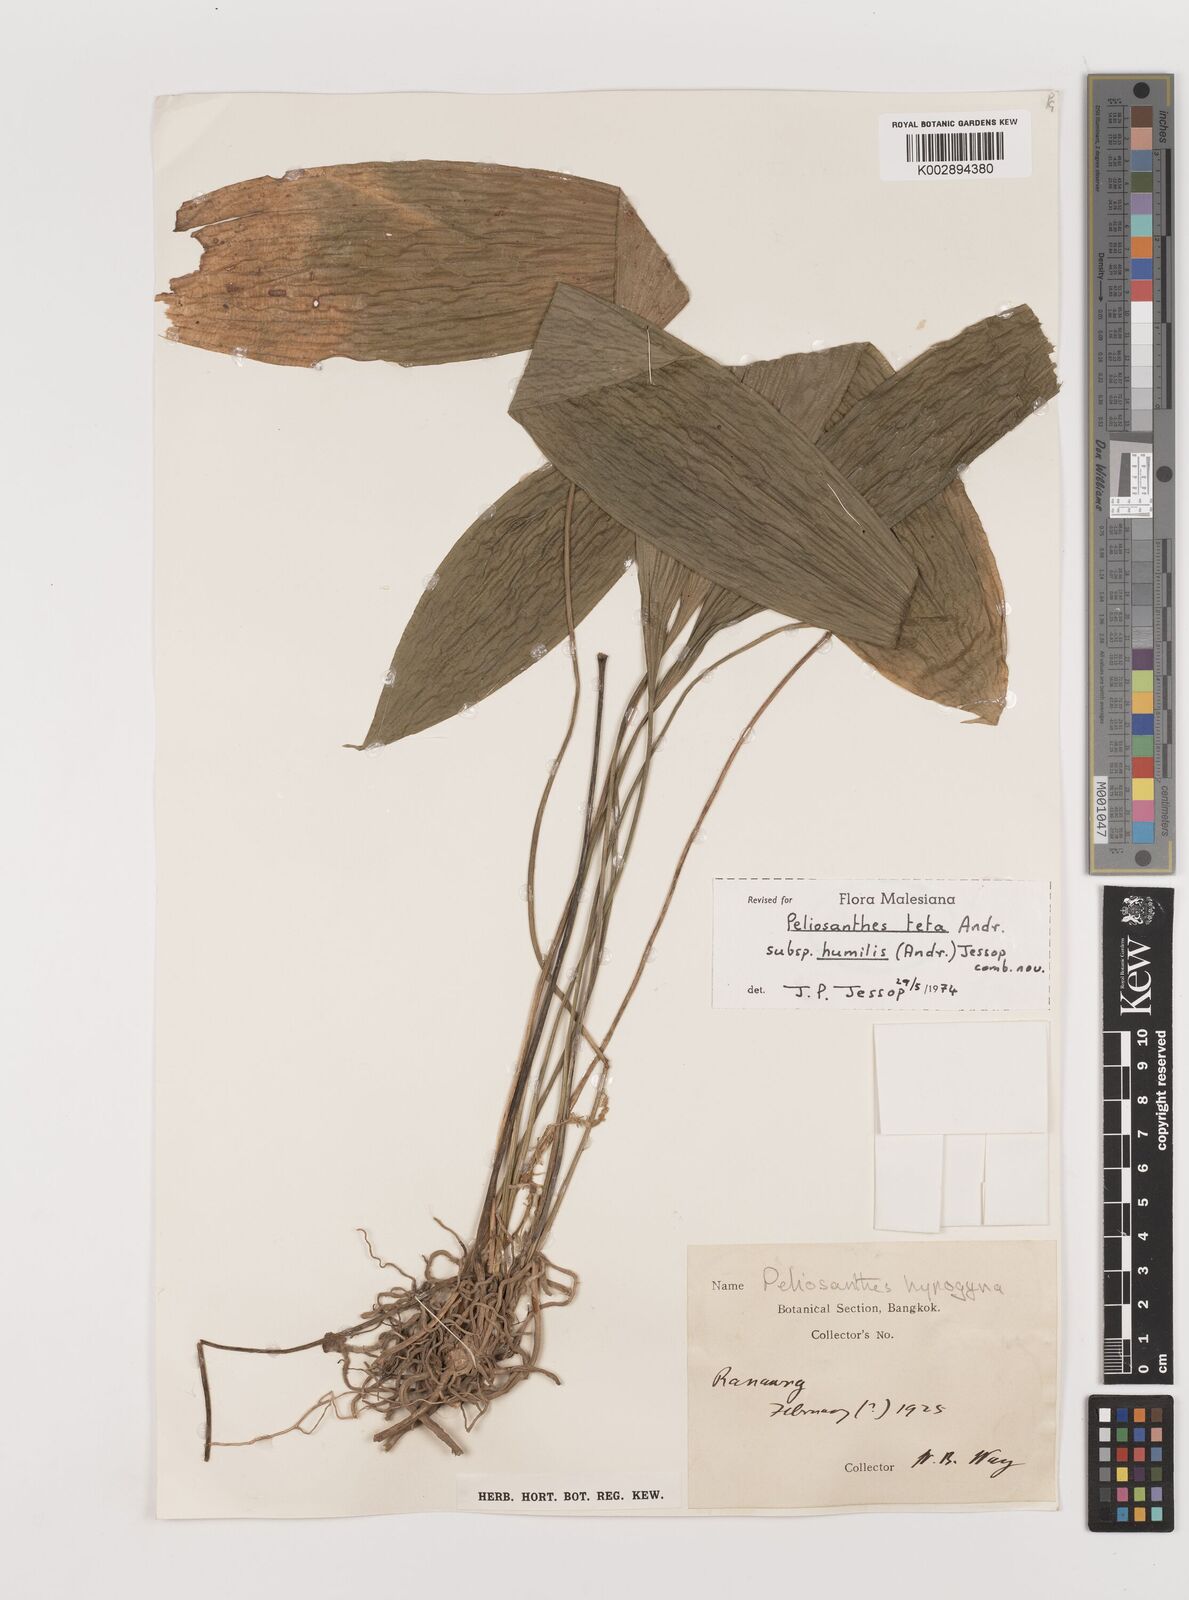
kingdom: Plantae
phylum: Tracheophyta
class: Liliopsida
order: Asparagales
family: Asparagaceae
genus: Peliosanthes
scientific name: Peliosanthes teta
